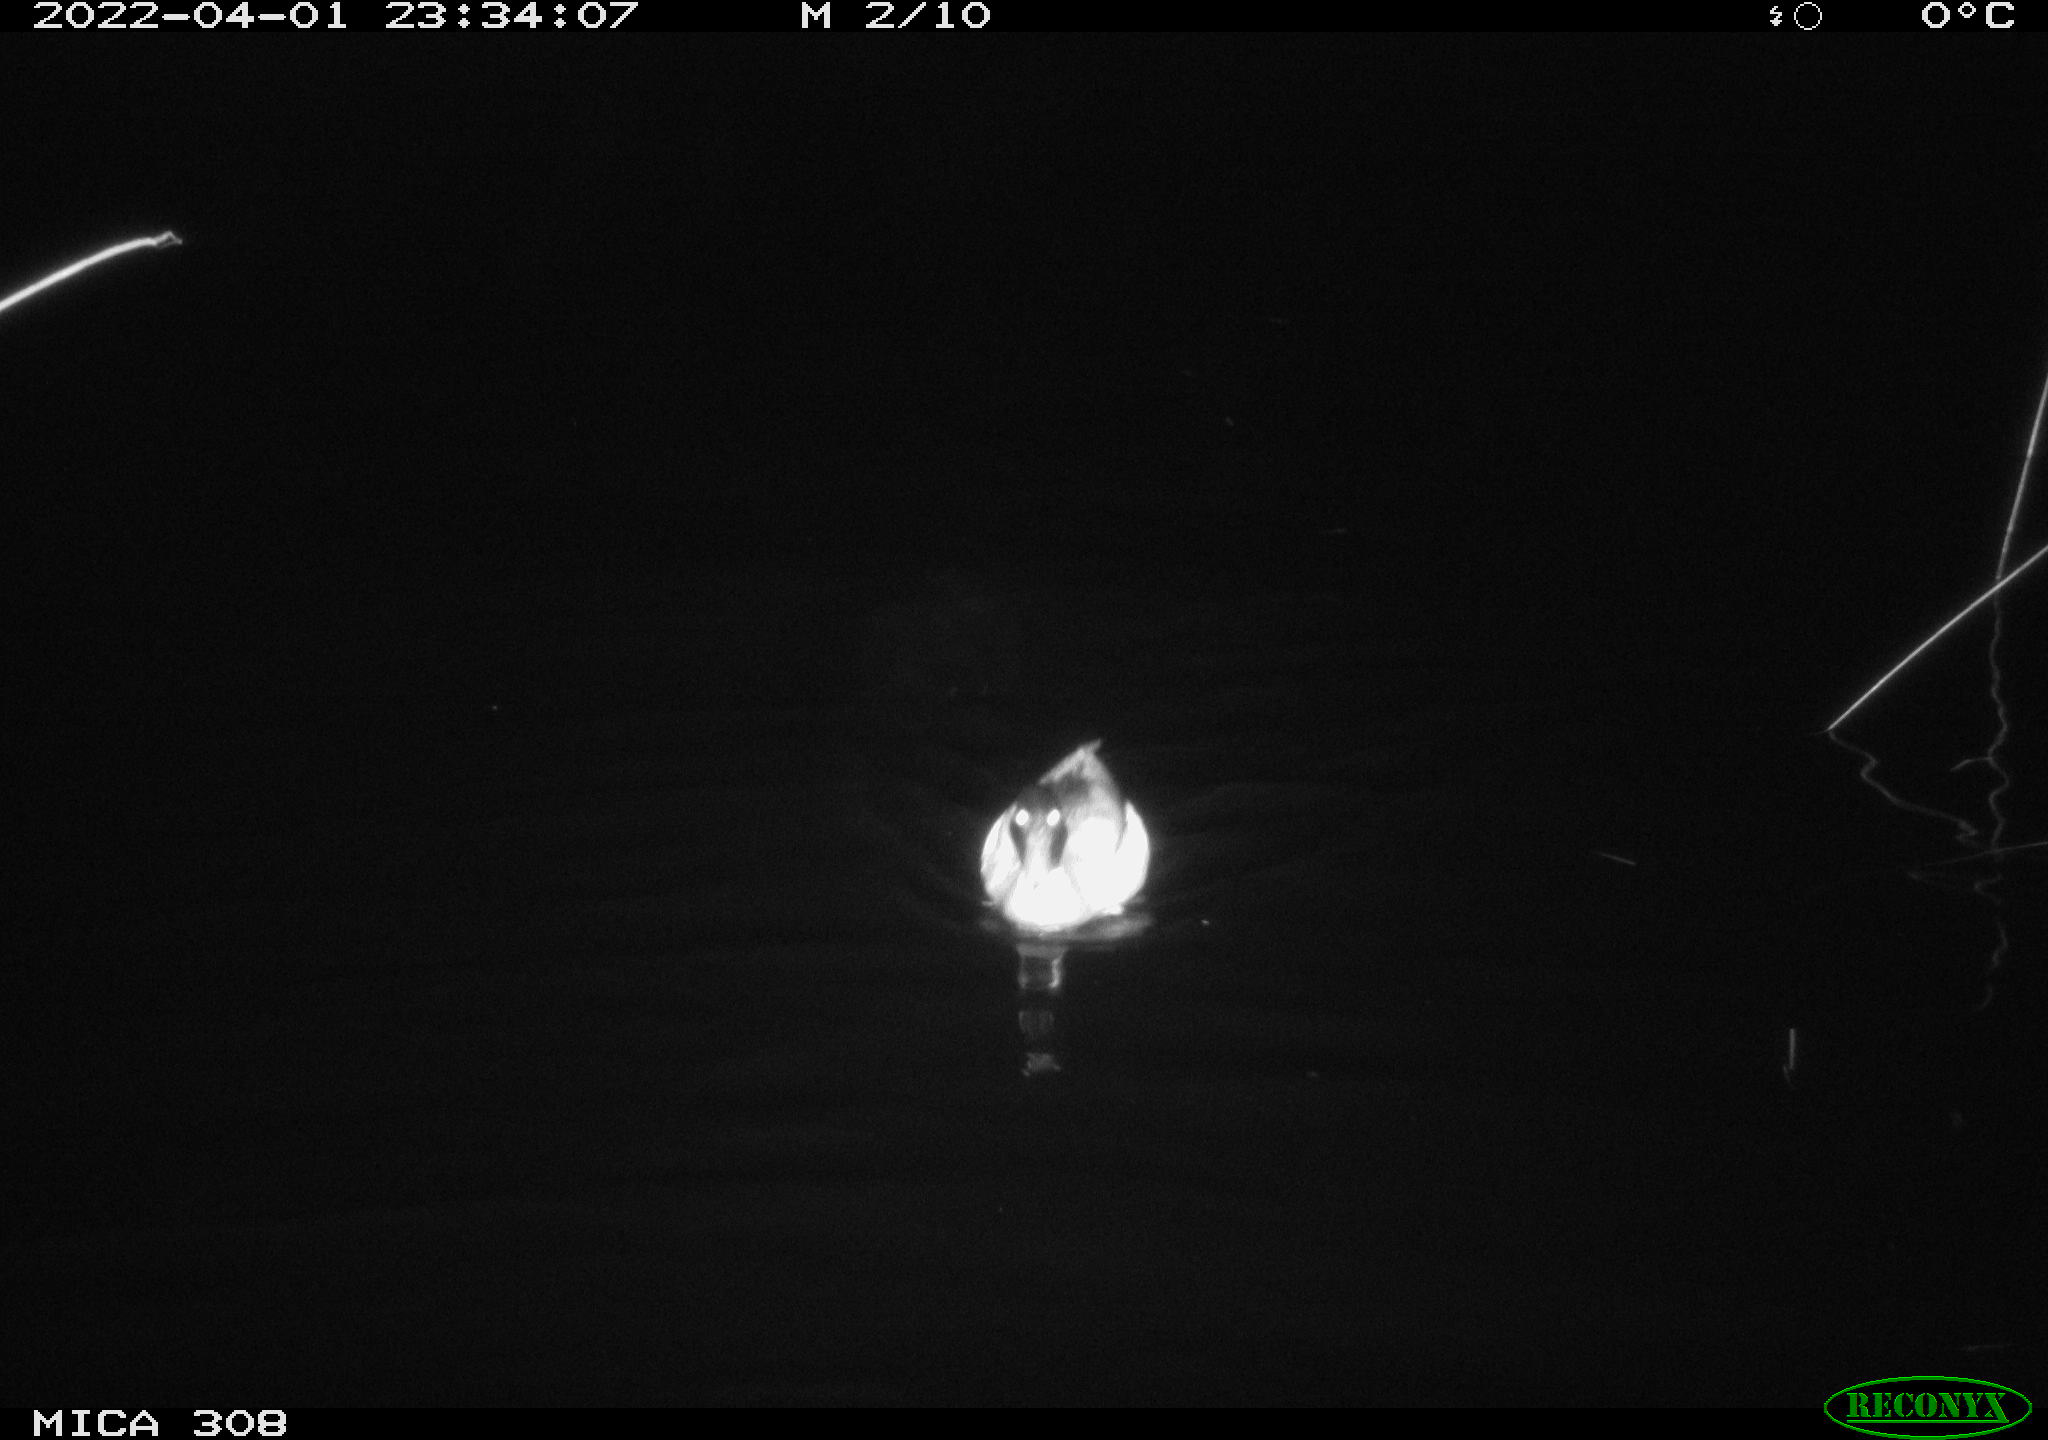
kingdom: Animalia
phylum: Chordata
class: Aves
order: Anseriformes
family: Anatidae
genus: Anas
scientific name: Anas platyrhynchos
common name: Mallard
